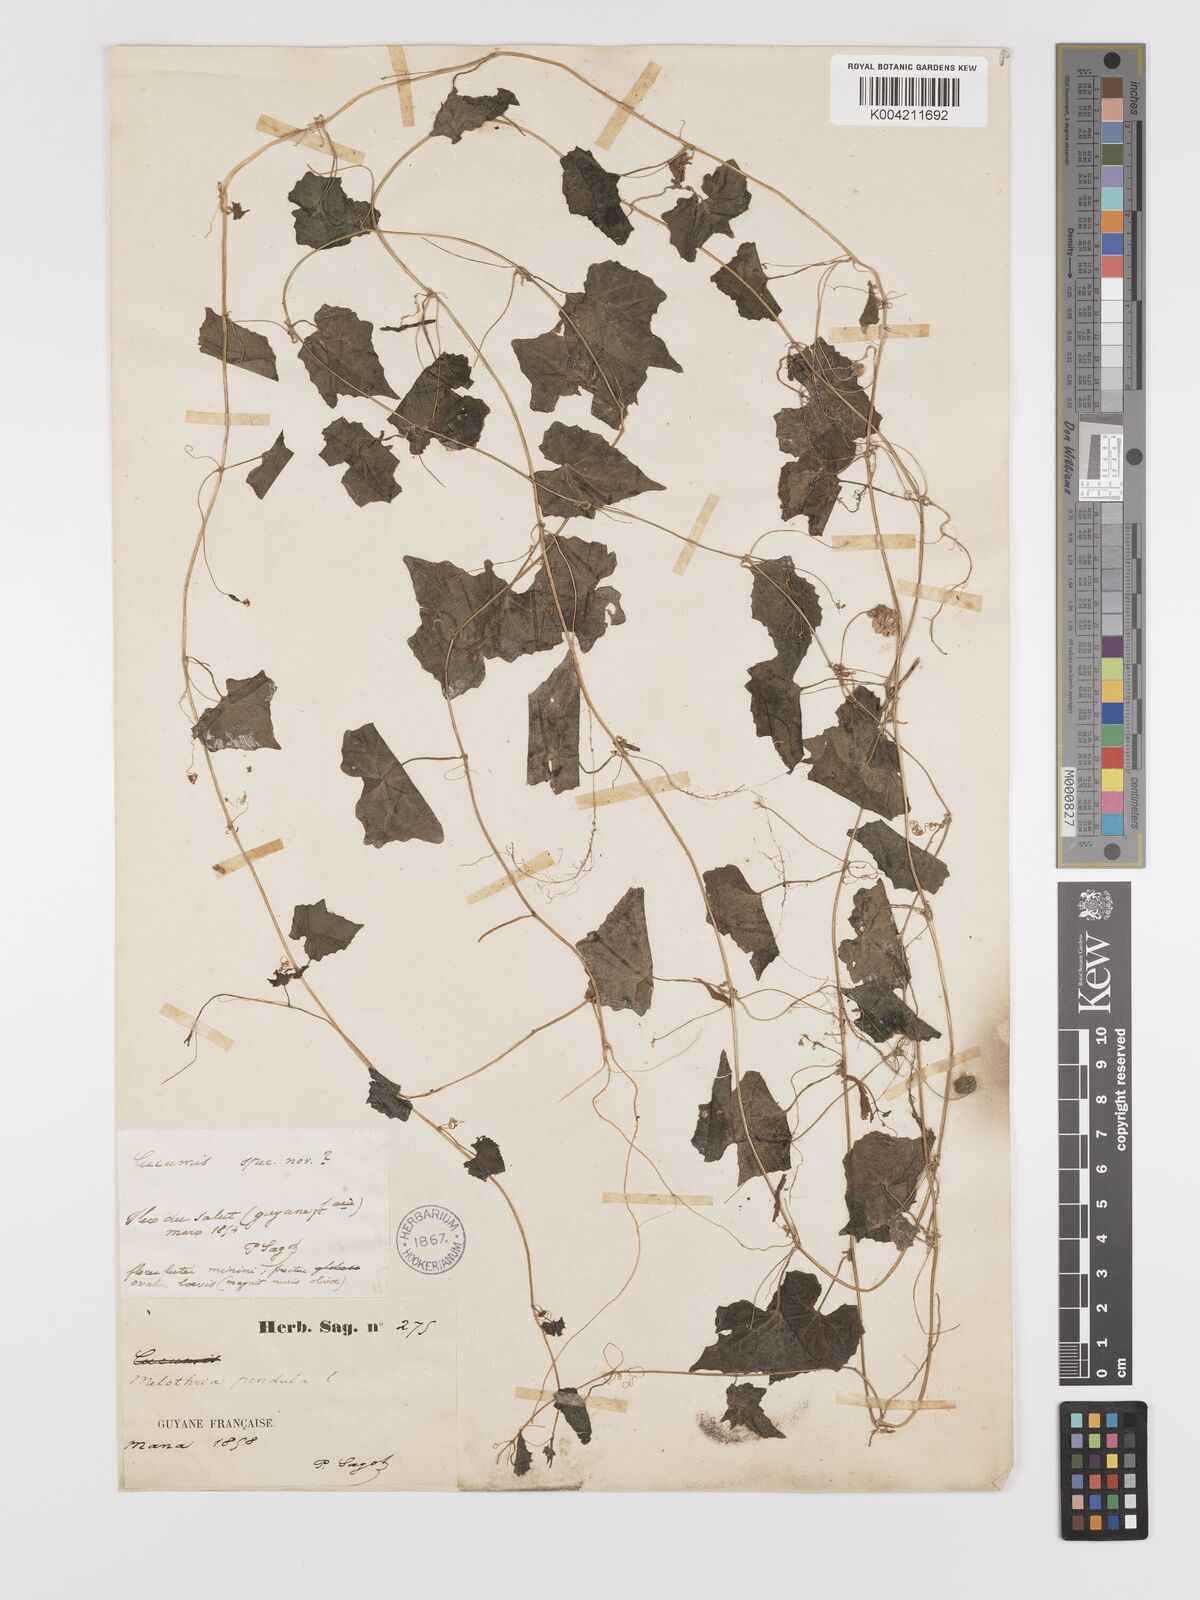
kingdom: Plantae
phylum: Tracheophyta
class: Magnoliopsida
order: Cucurbitales
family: Cucurbitaceae
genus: Melothria
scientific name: Melothria pendula
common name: Creeping-cucumber
